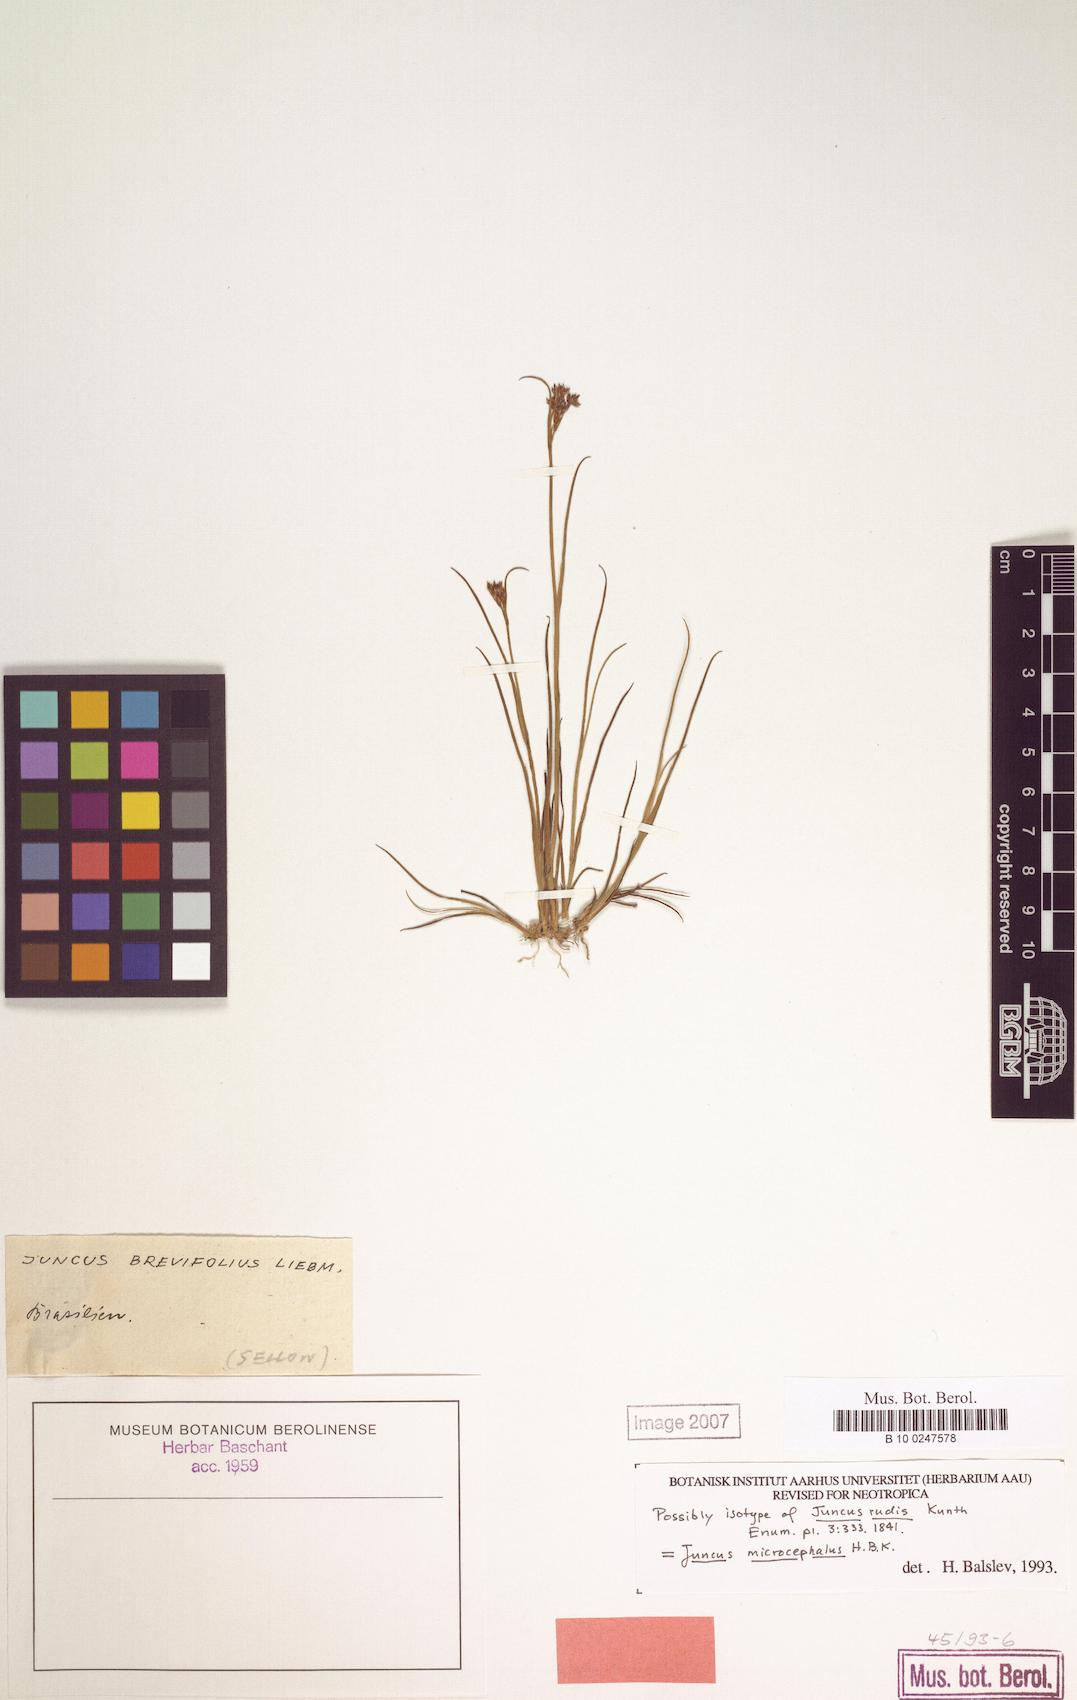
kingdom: Plantae
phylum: Tracheophyta
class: Liliopsida
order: Poales
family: Juncaceae
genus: Juncus
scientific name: Juncus microcephalus
